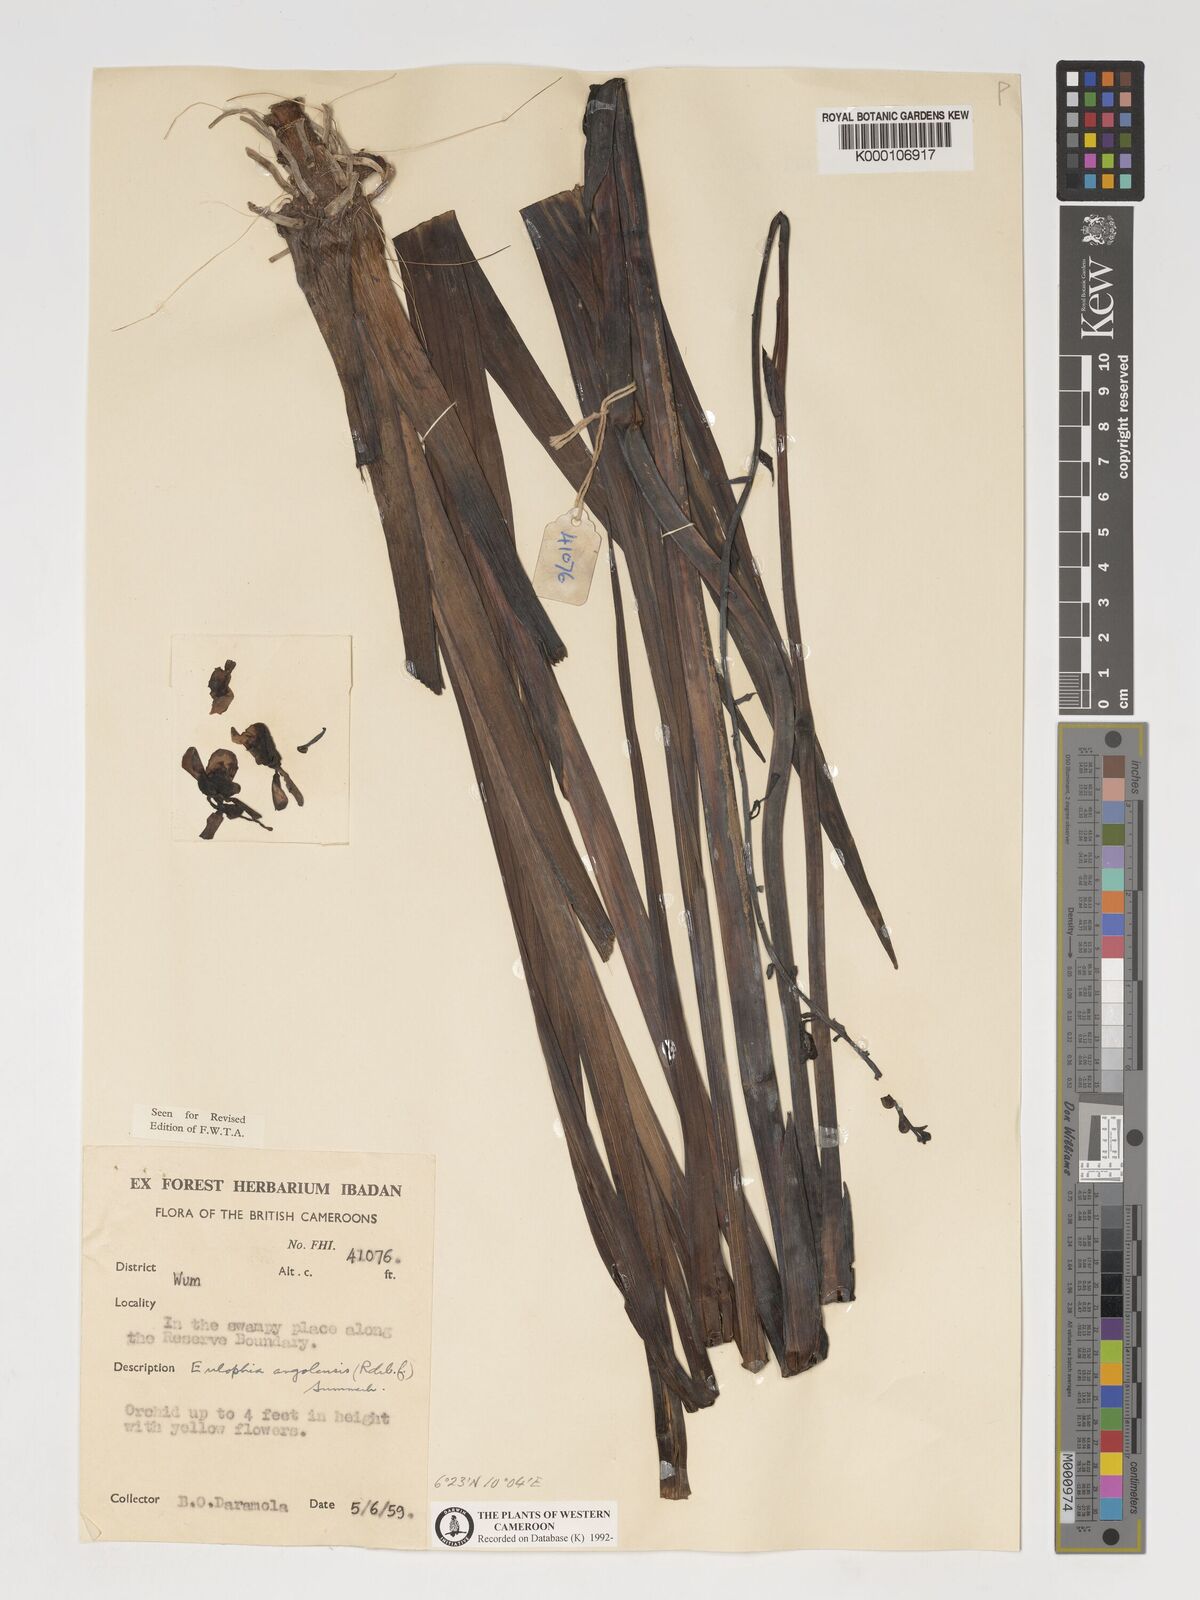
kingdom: Plantae
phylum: Tracheophyta
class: Liliopsida
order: Asparagales
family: Orchidaceae
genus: Eulophia
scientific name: Eulophia angolensis
